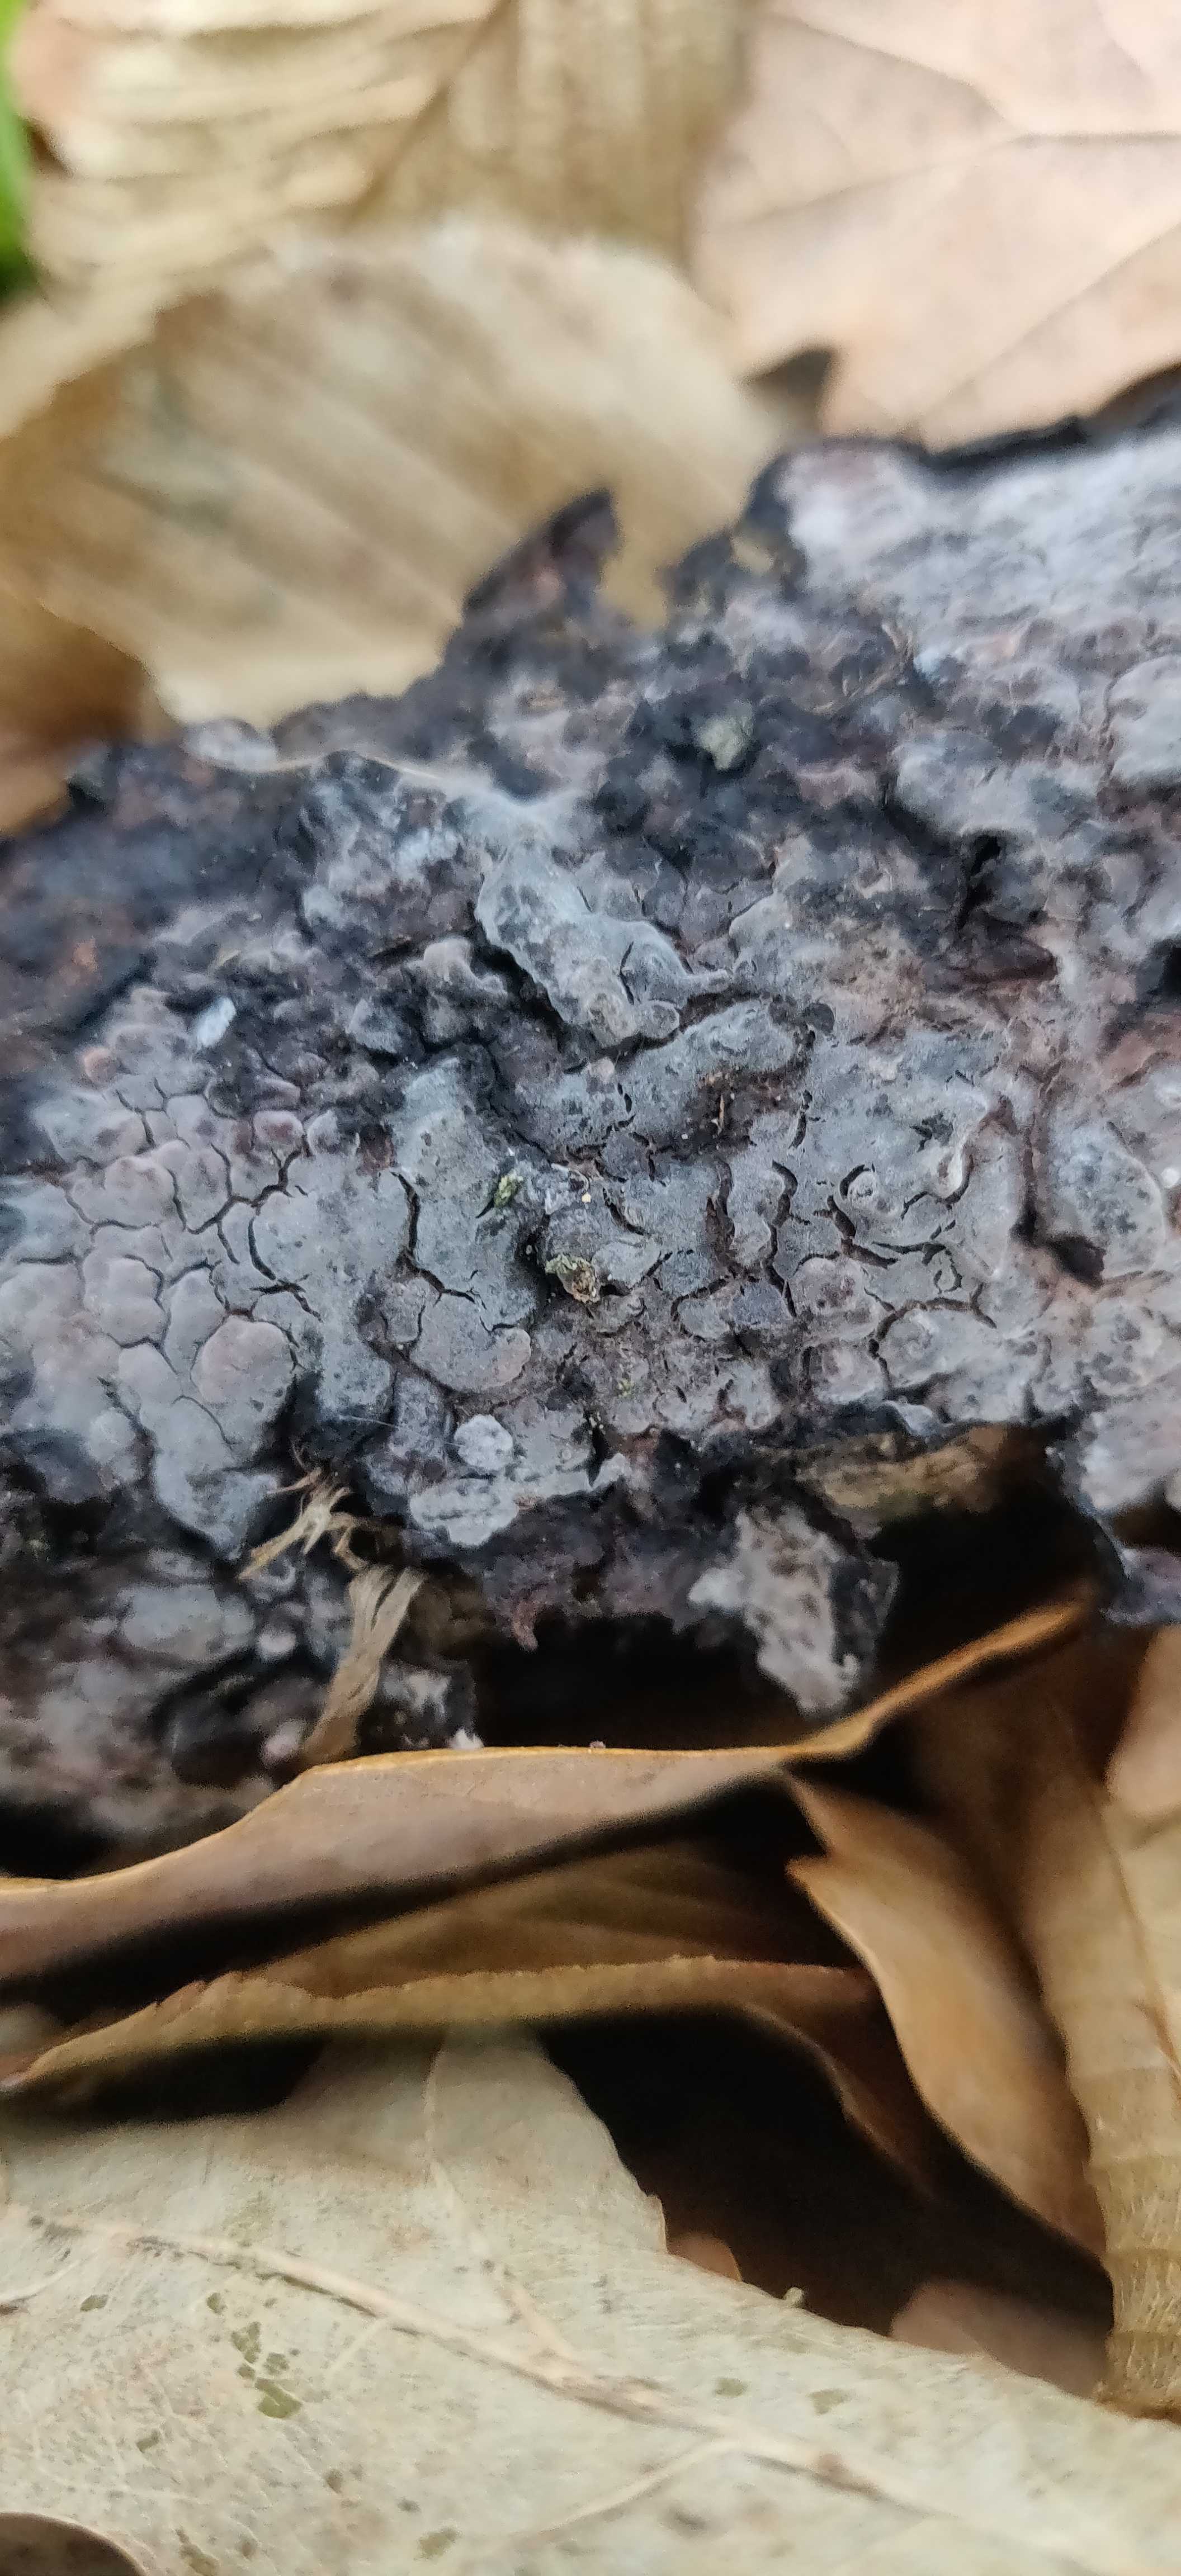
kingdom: Fungi
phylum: Basidiomycota
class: Agaricomycetes
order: Russulales
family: Peniophoraceae
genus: Peniophora
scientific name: Peniophora quercina
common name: ege-voksskind
